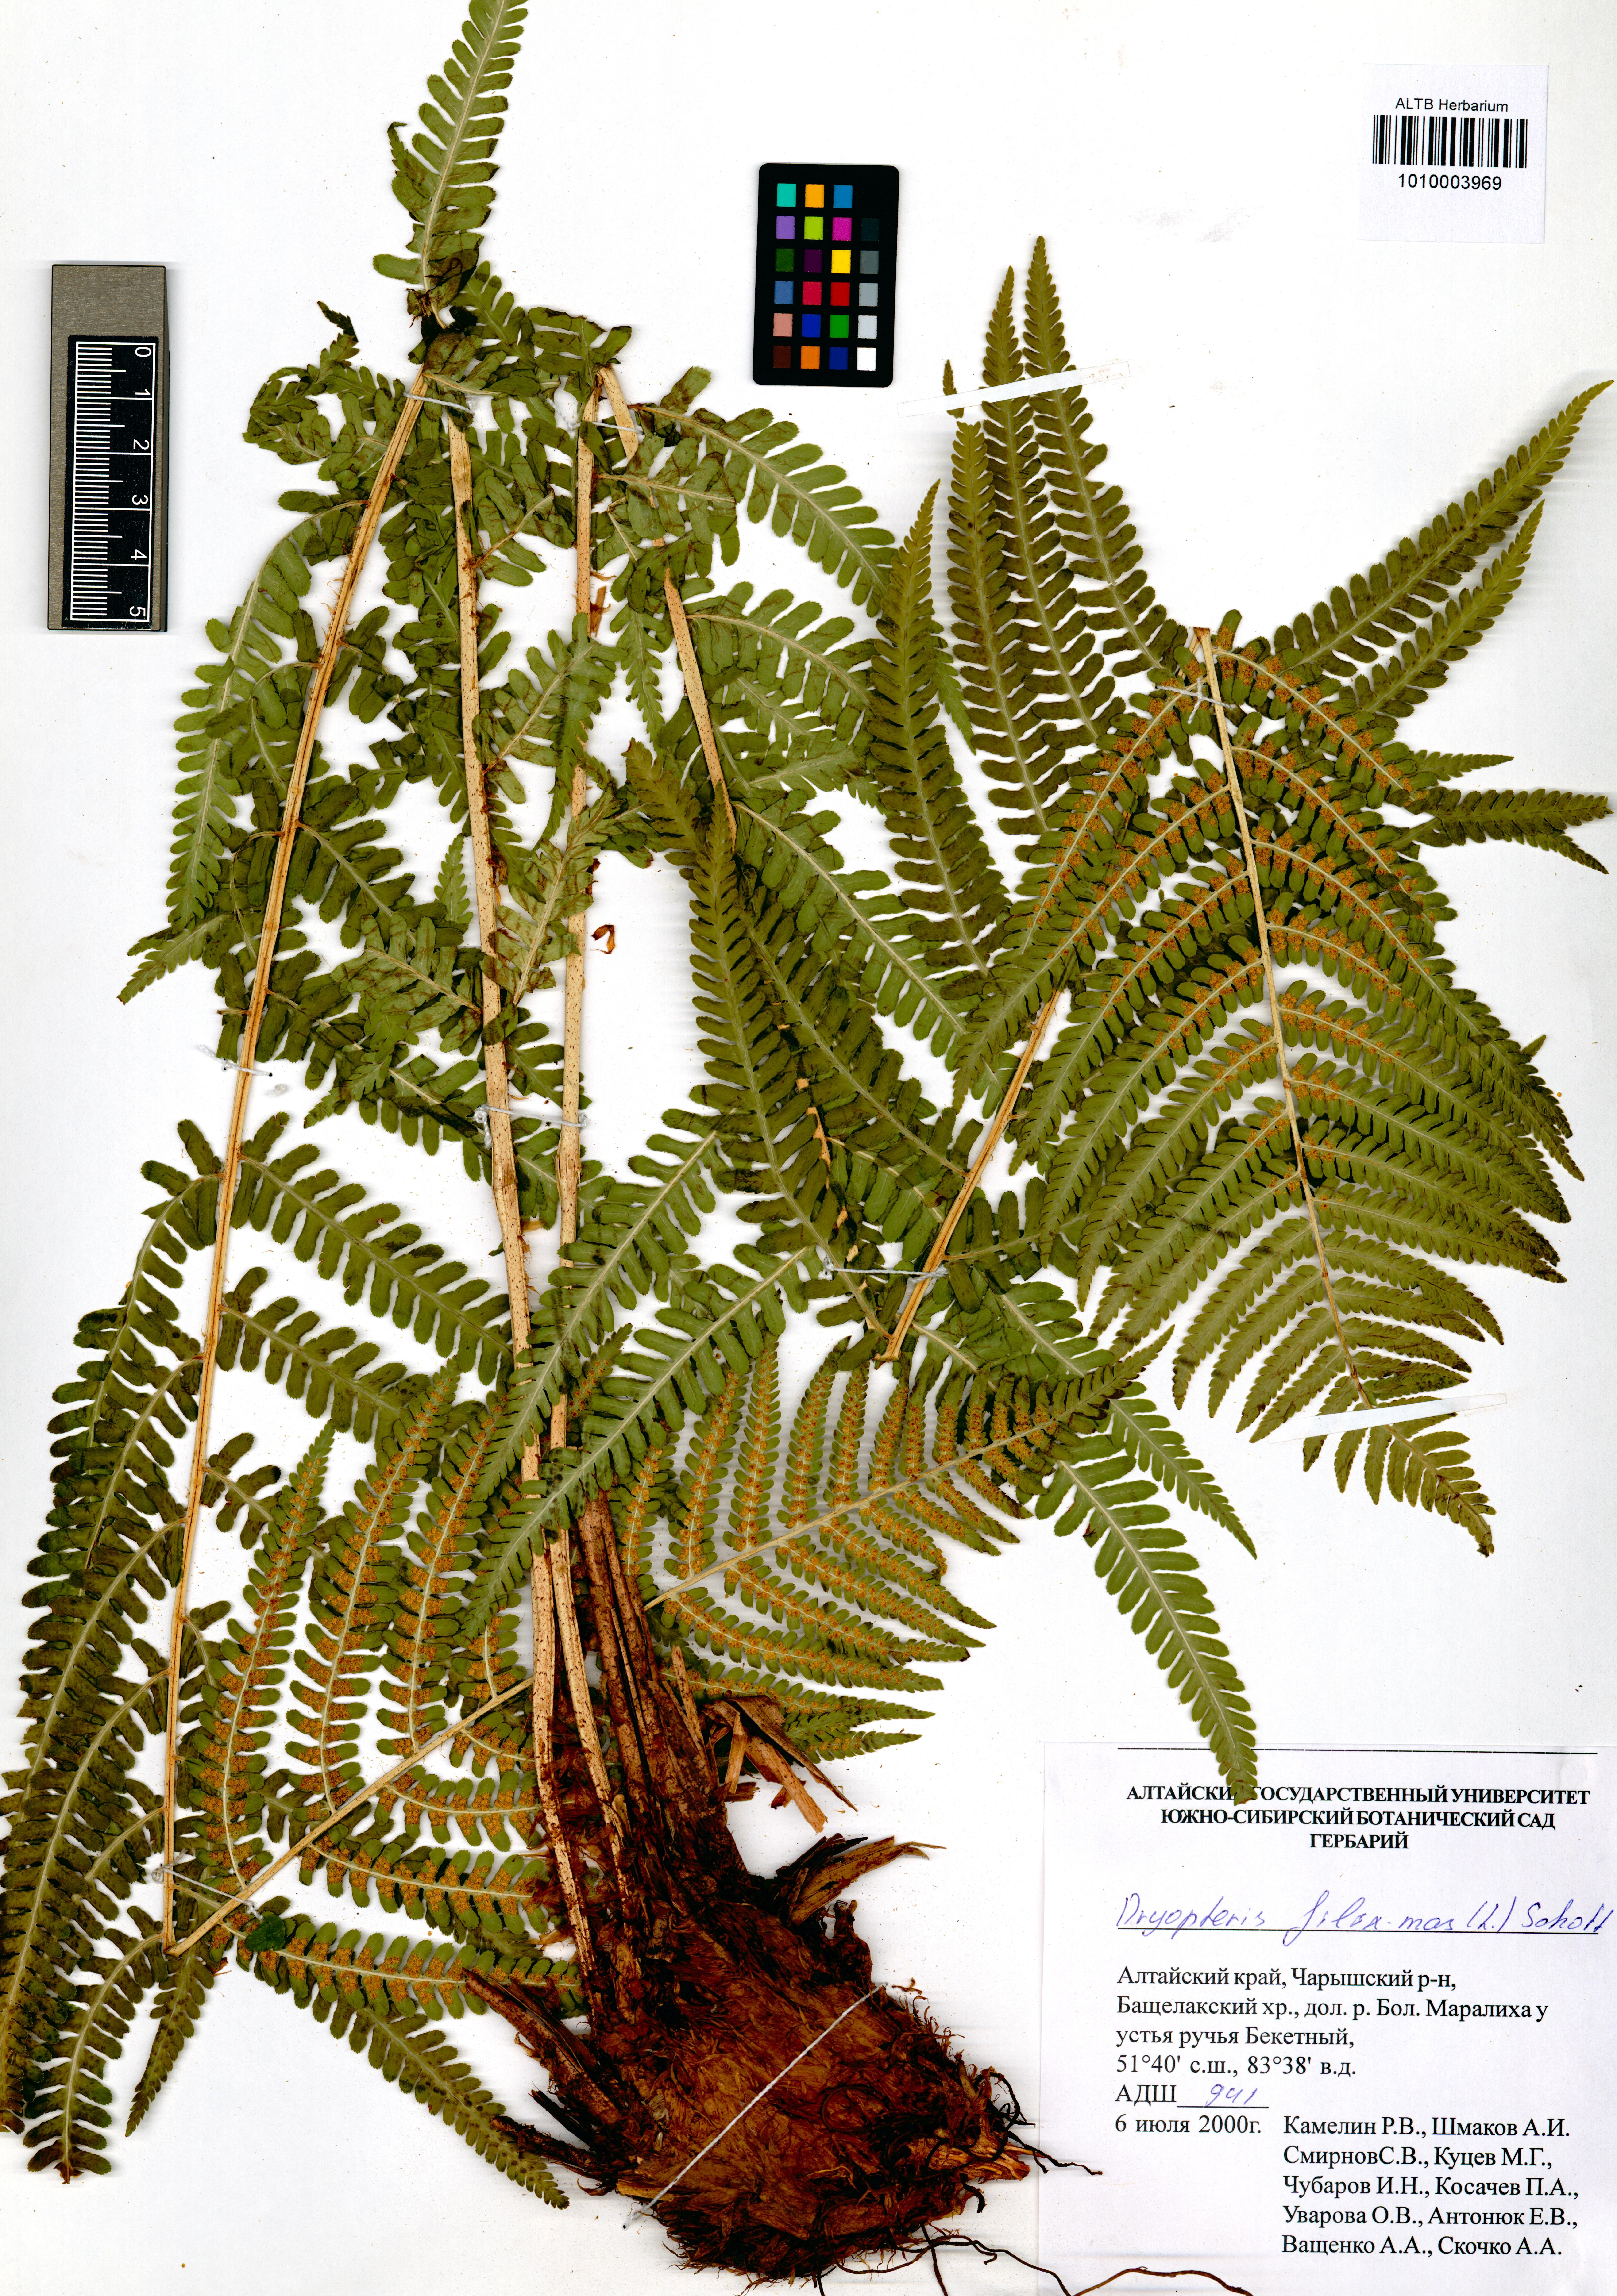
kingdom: Plantae
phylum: Tracheophyta
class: Polypodiopsida
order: Polypodiales
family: Dryopteridaceae
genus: Dryopteris
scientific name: Dryopteris filix-mas
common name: Male fern
